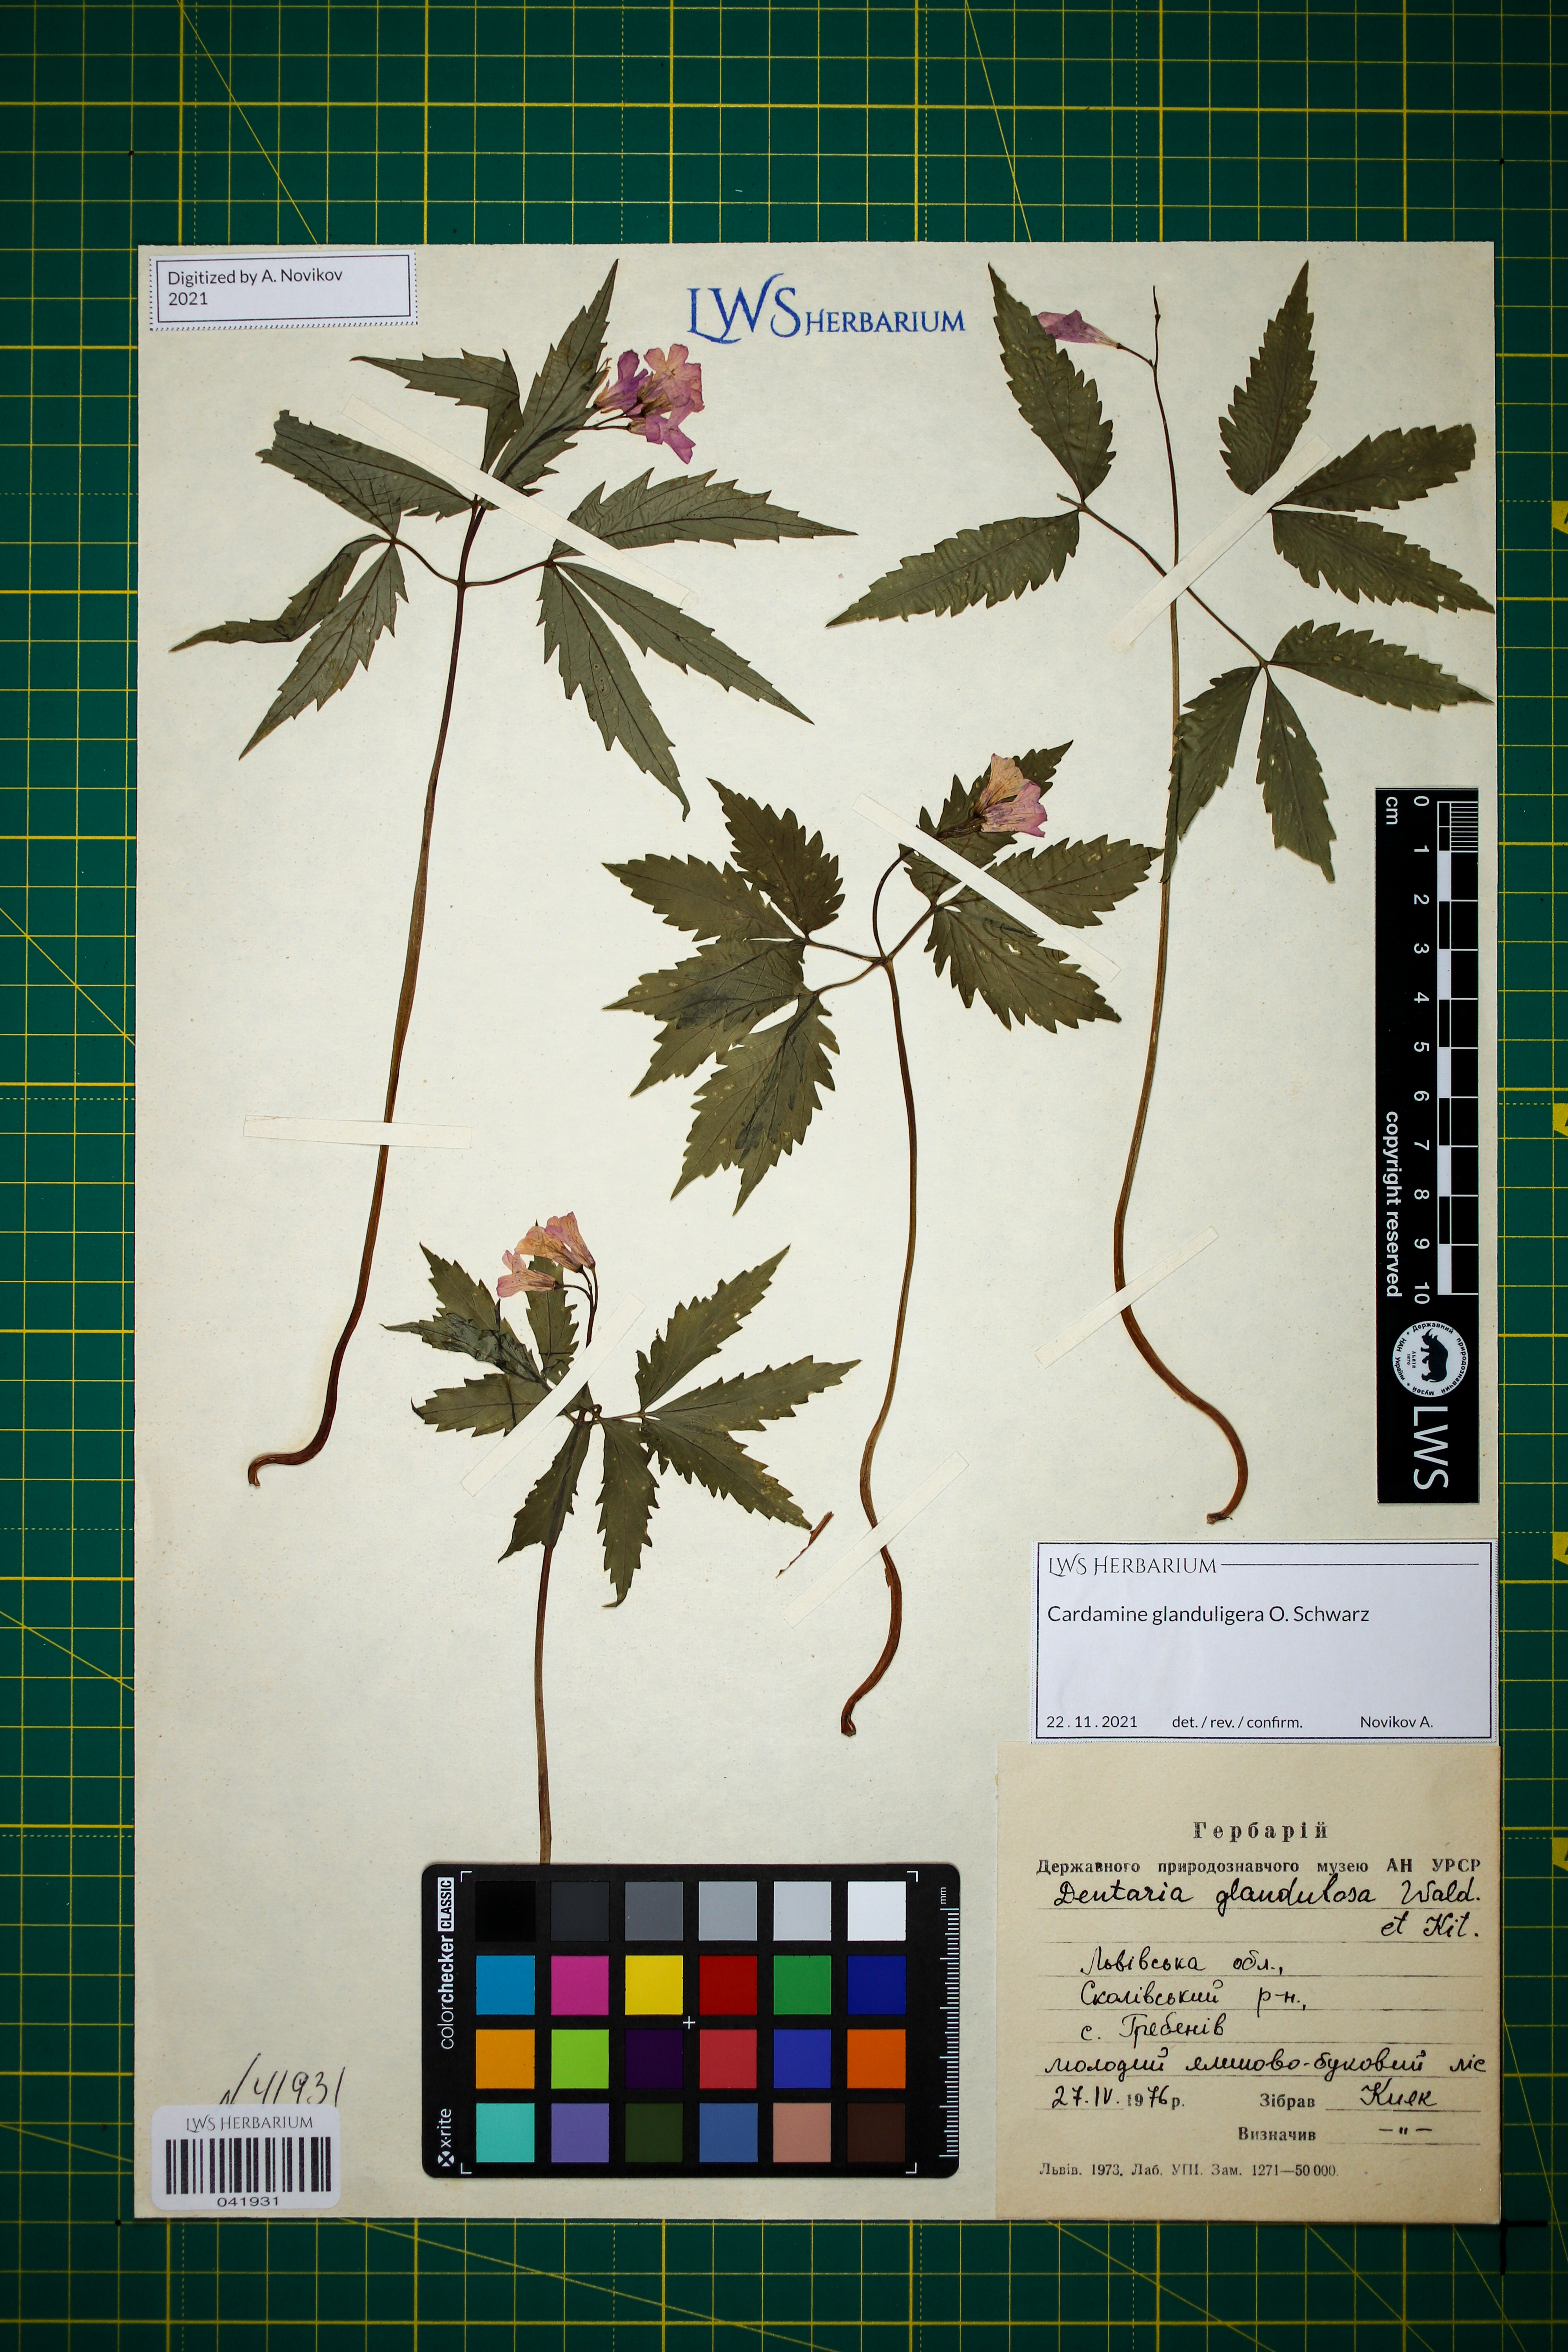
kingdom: Plantae
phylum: Tracheophyta
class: Magnoliopsida
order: Brassicales
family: Brassicaceae
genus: Cardamine
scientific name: Cardamine glanduligera
